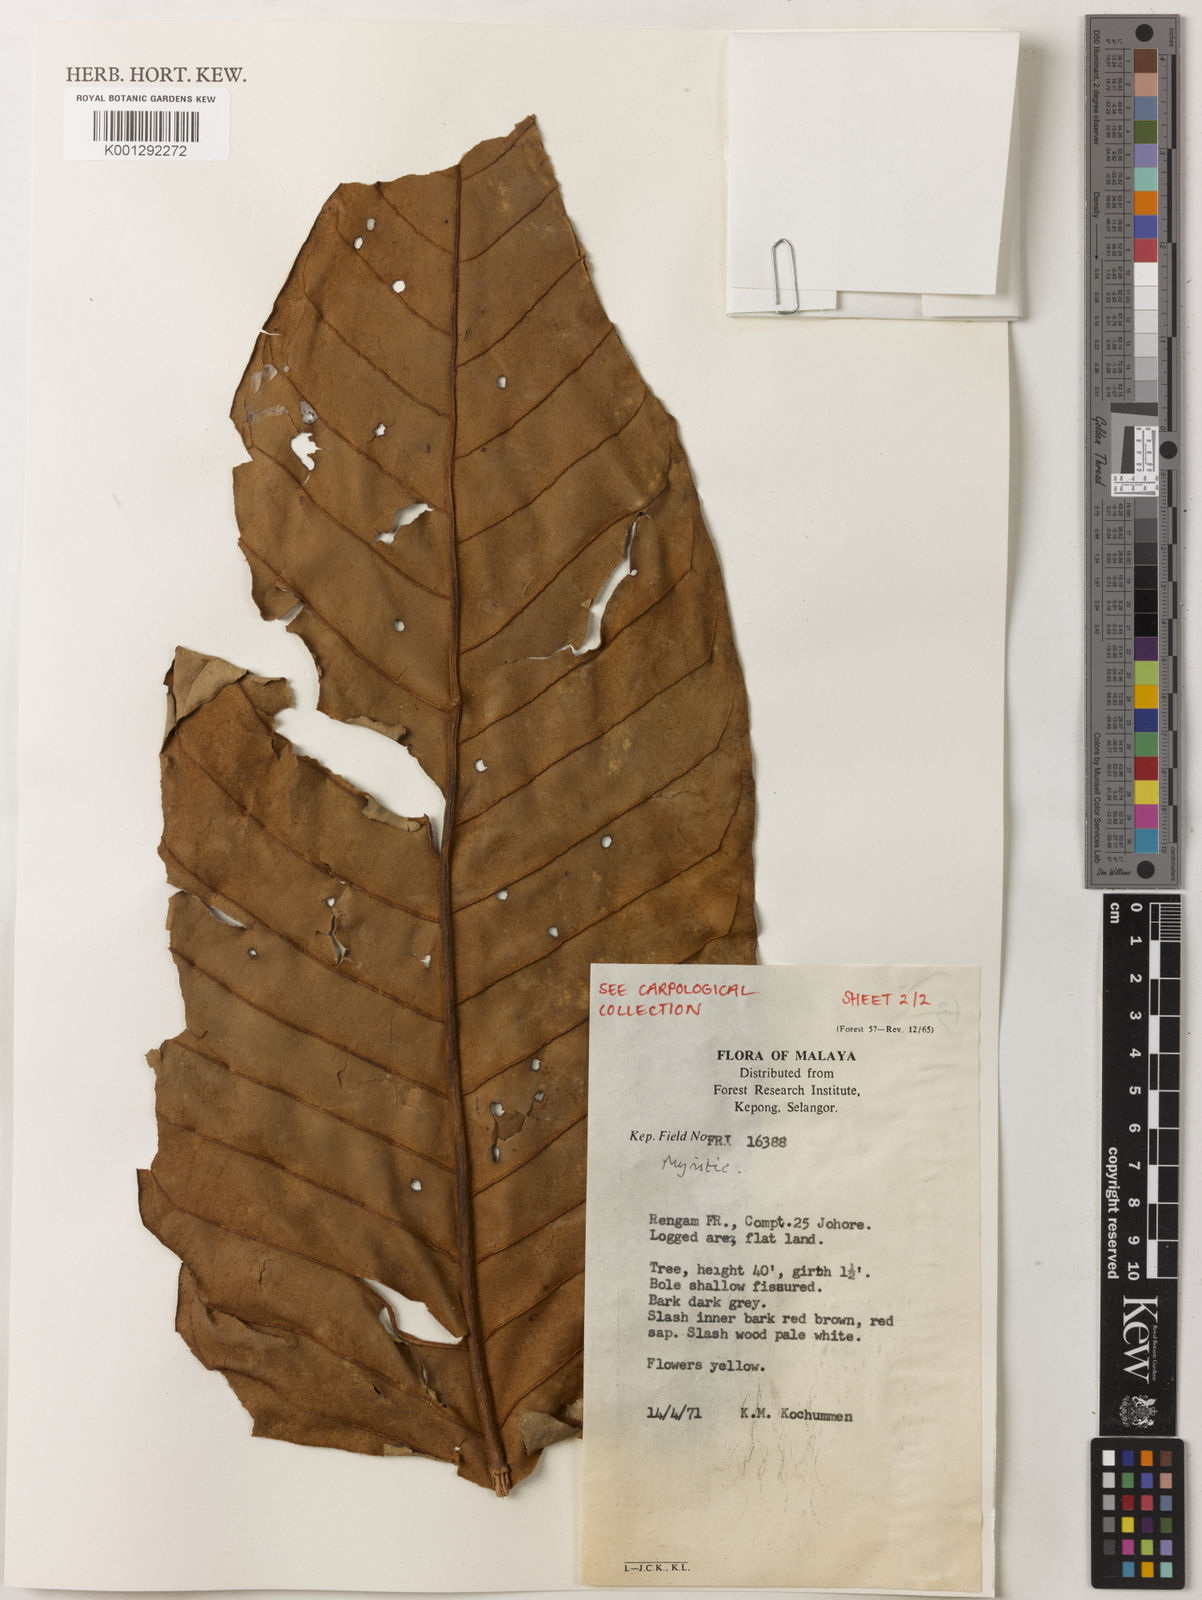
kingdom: Plantae
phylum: Tracheophyta
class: Magnoliopsida
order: Magnoliales
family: Myristicaceae
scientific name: Myristicaceae
